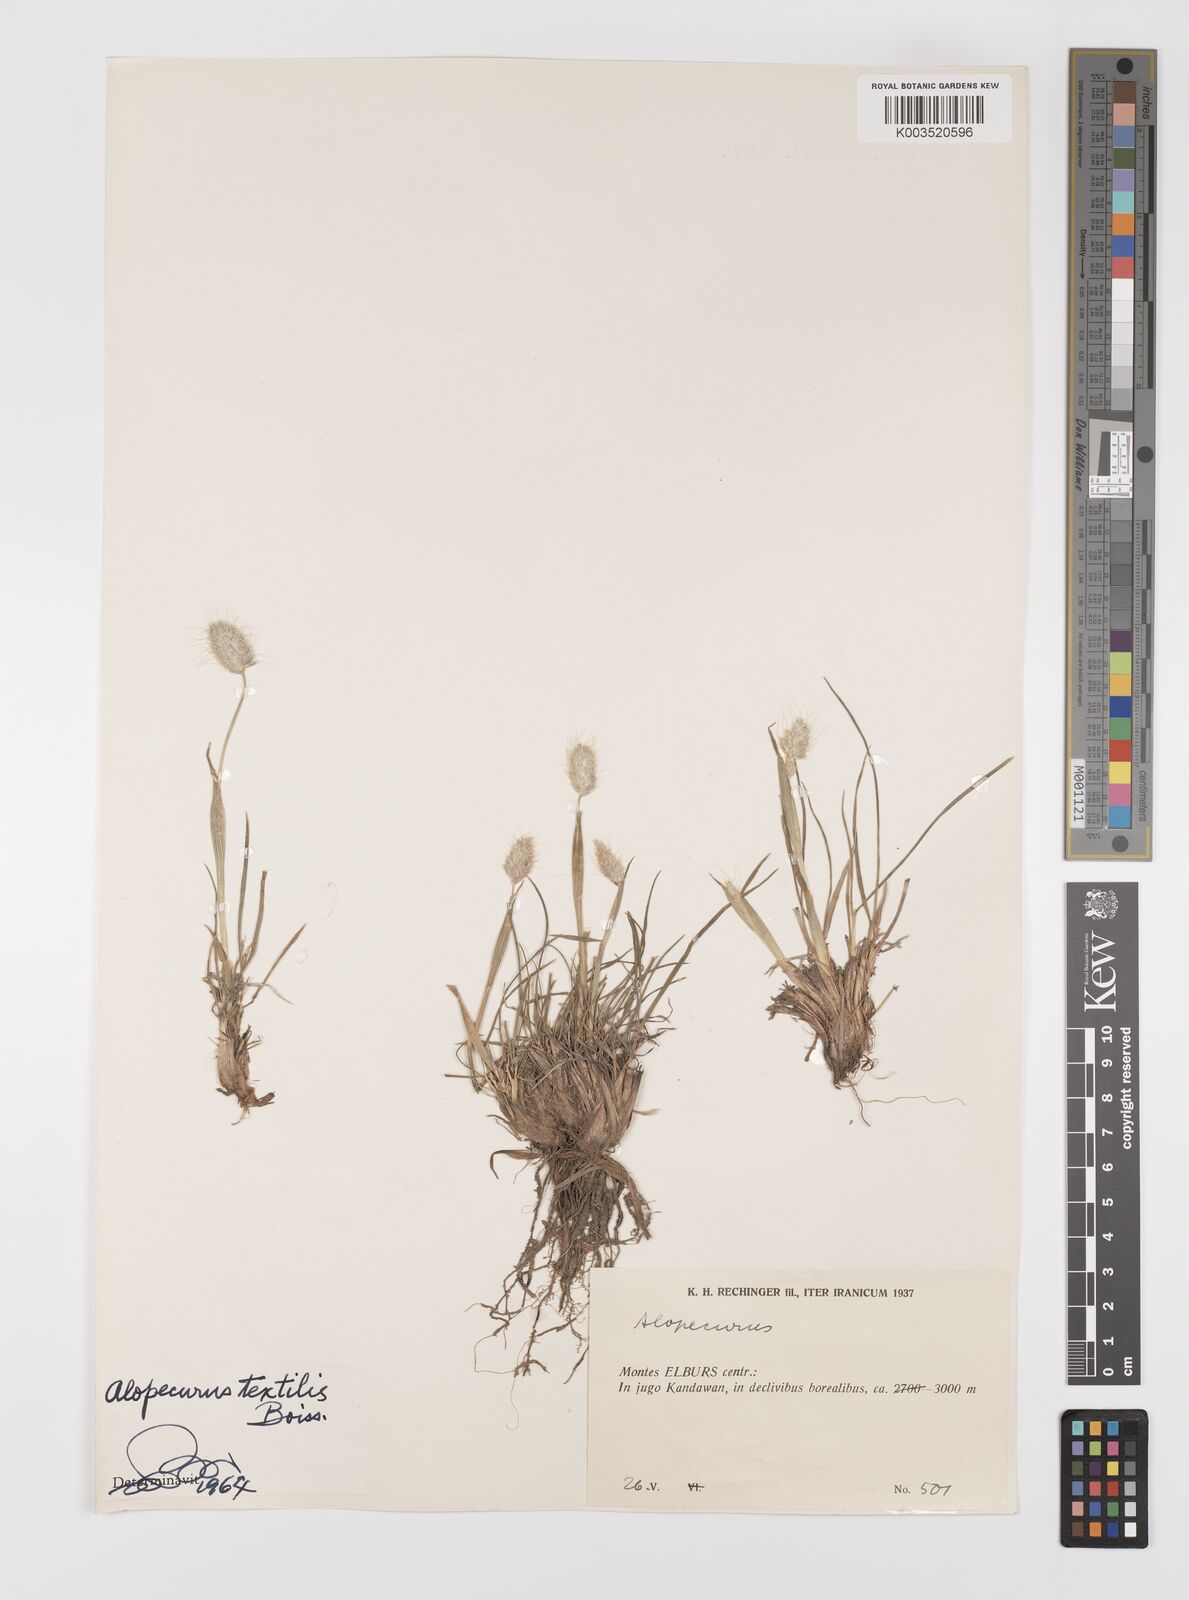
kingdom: Plantae
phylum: Tracheophyta
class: Liliopsida
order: Poales
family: Poaceae
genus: Alopecurus
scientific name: Alopecurus textilis
